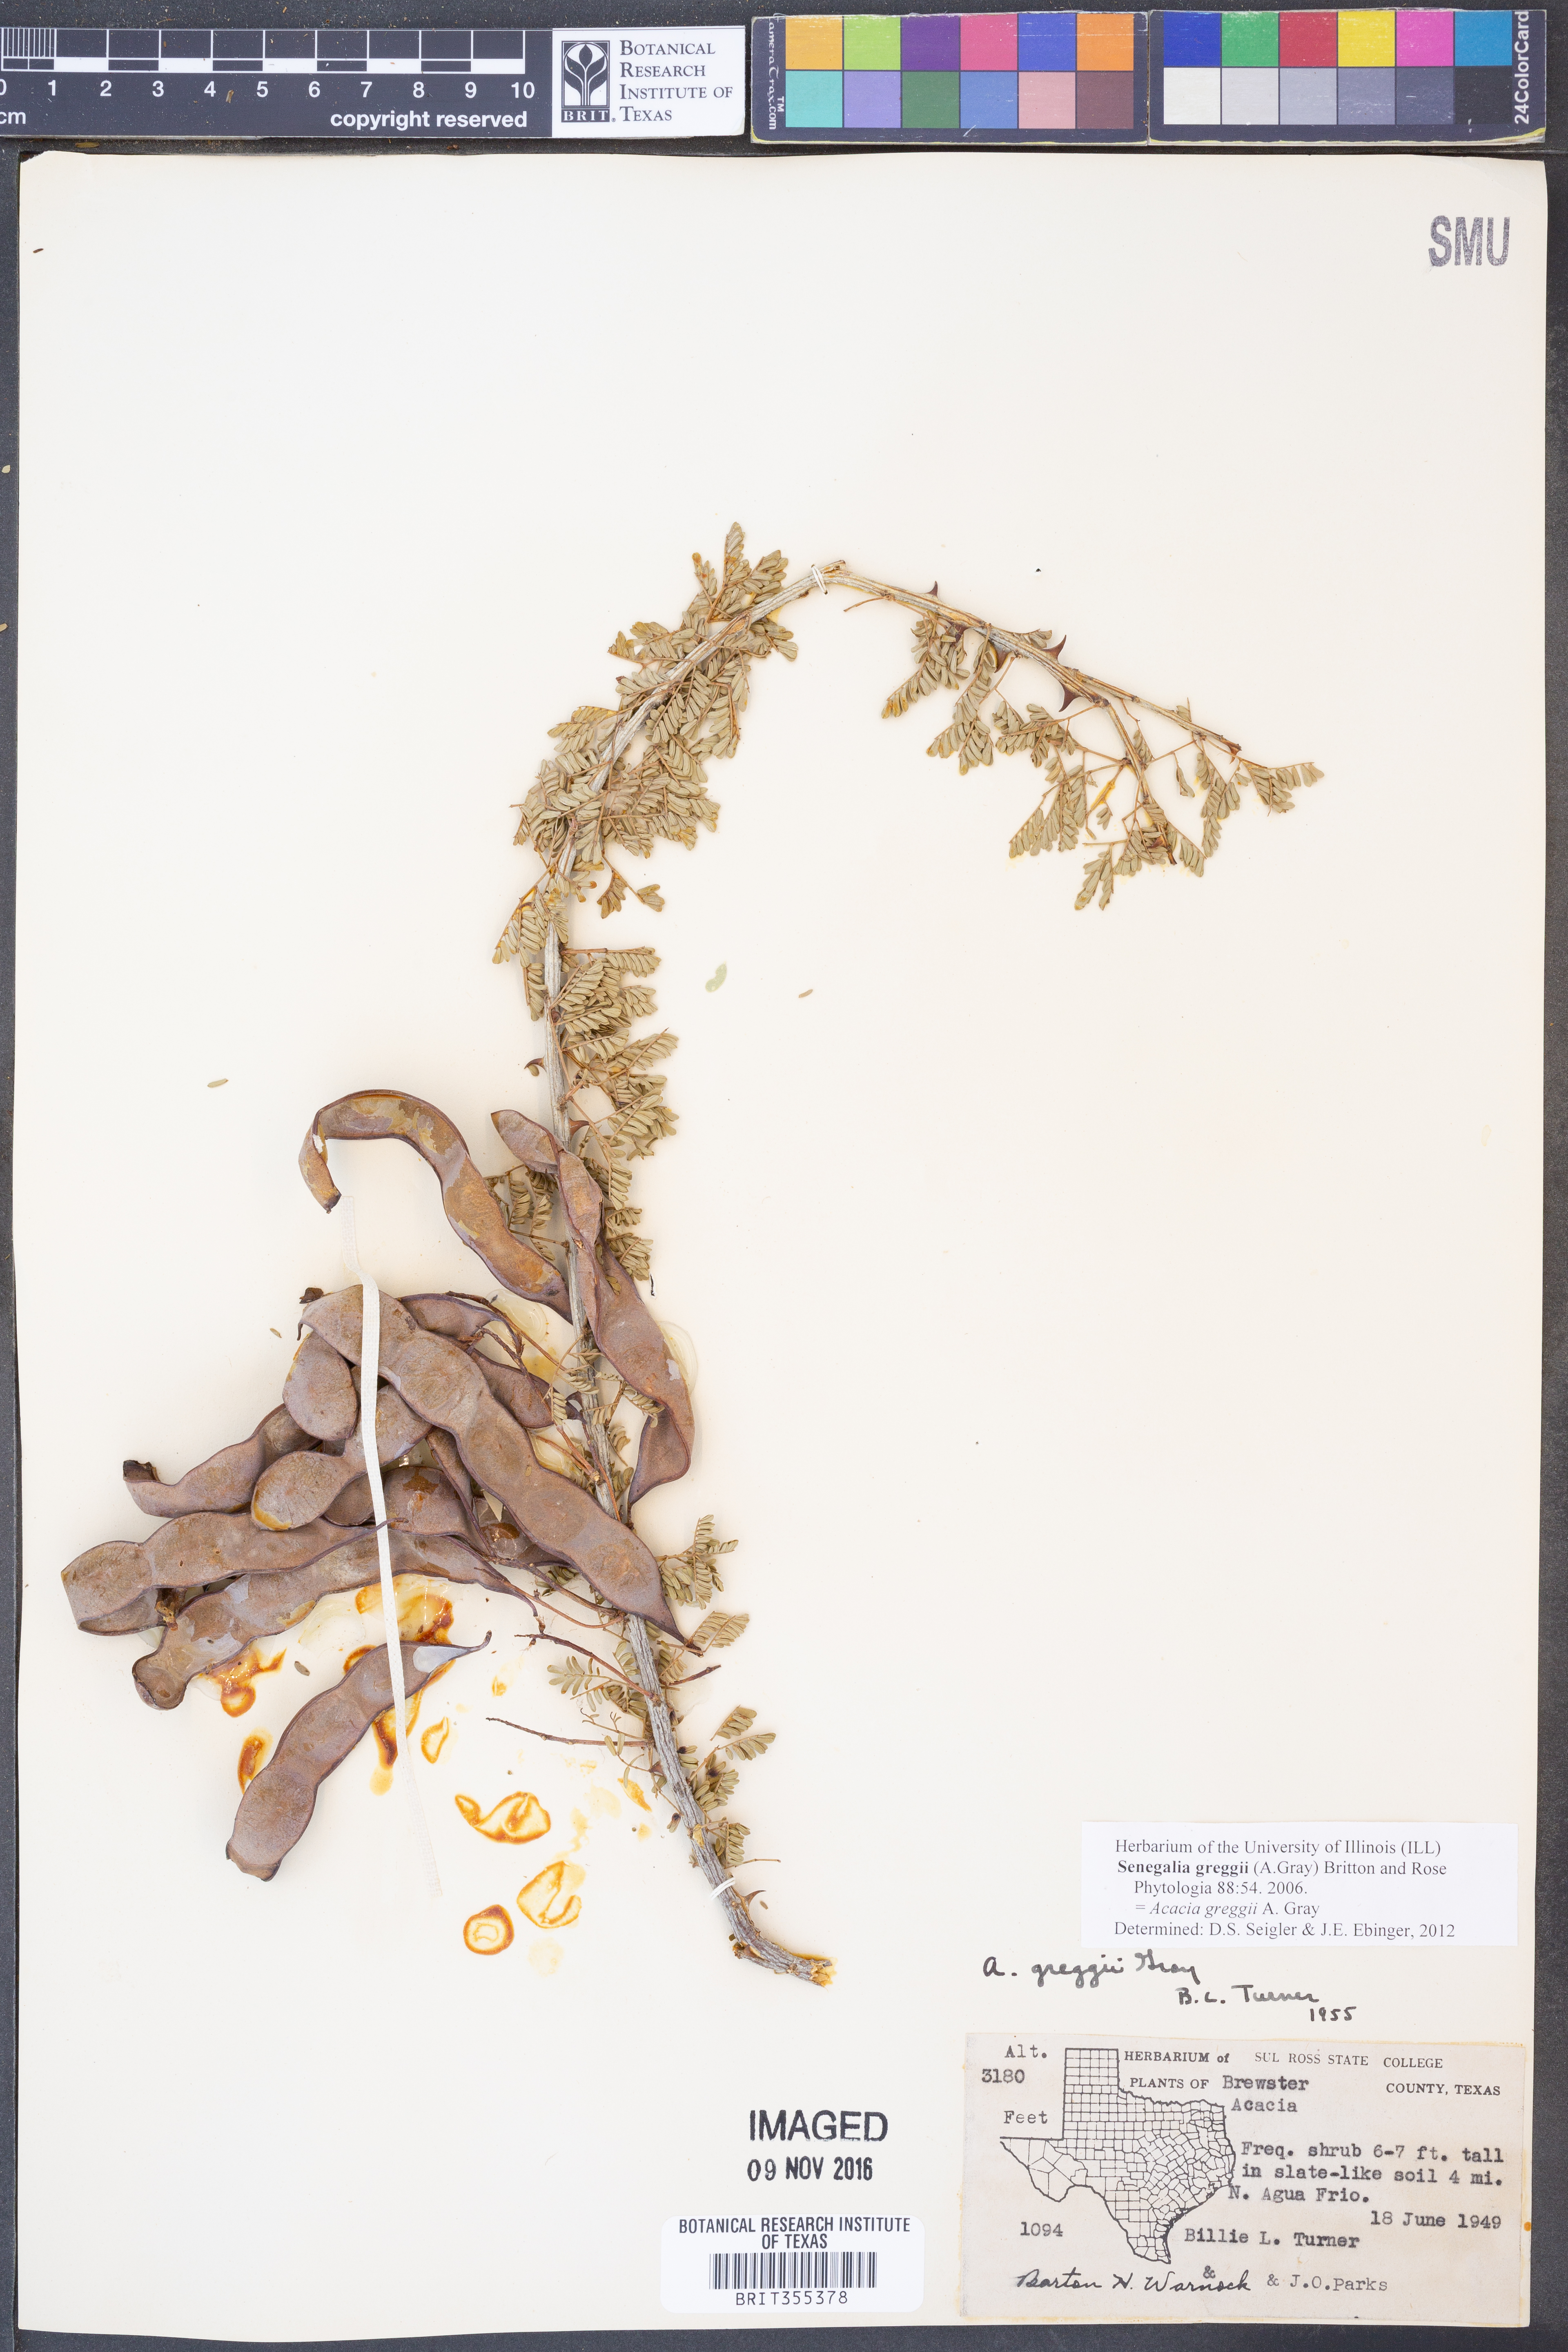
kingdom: Plantae
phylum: Tracheophyta
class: Magnoliopsida
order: Fabales
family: Fabaceae
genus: Senegalia
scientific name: Senegalia greggii
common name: Texas-mimosa
